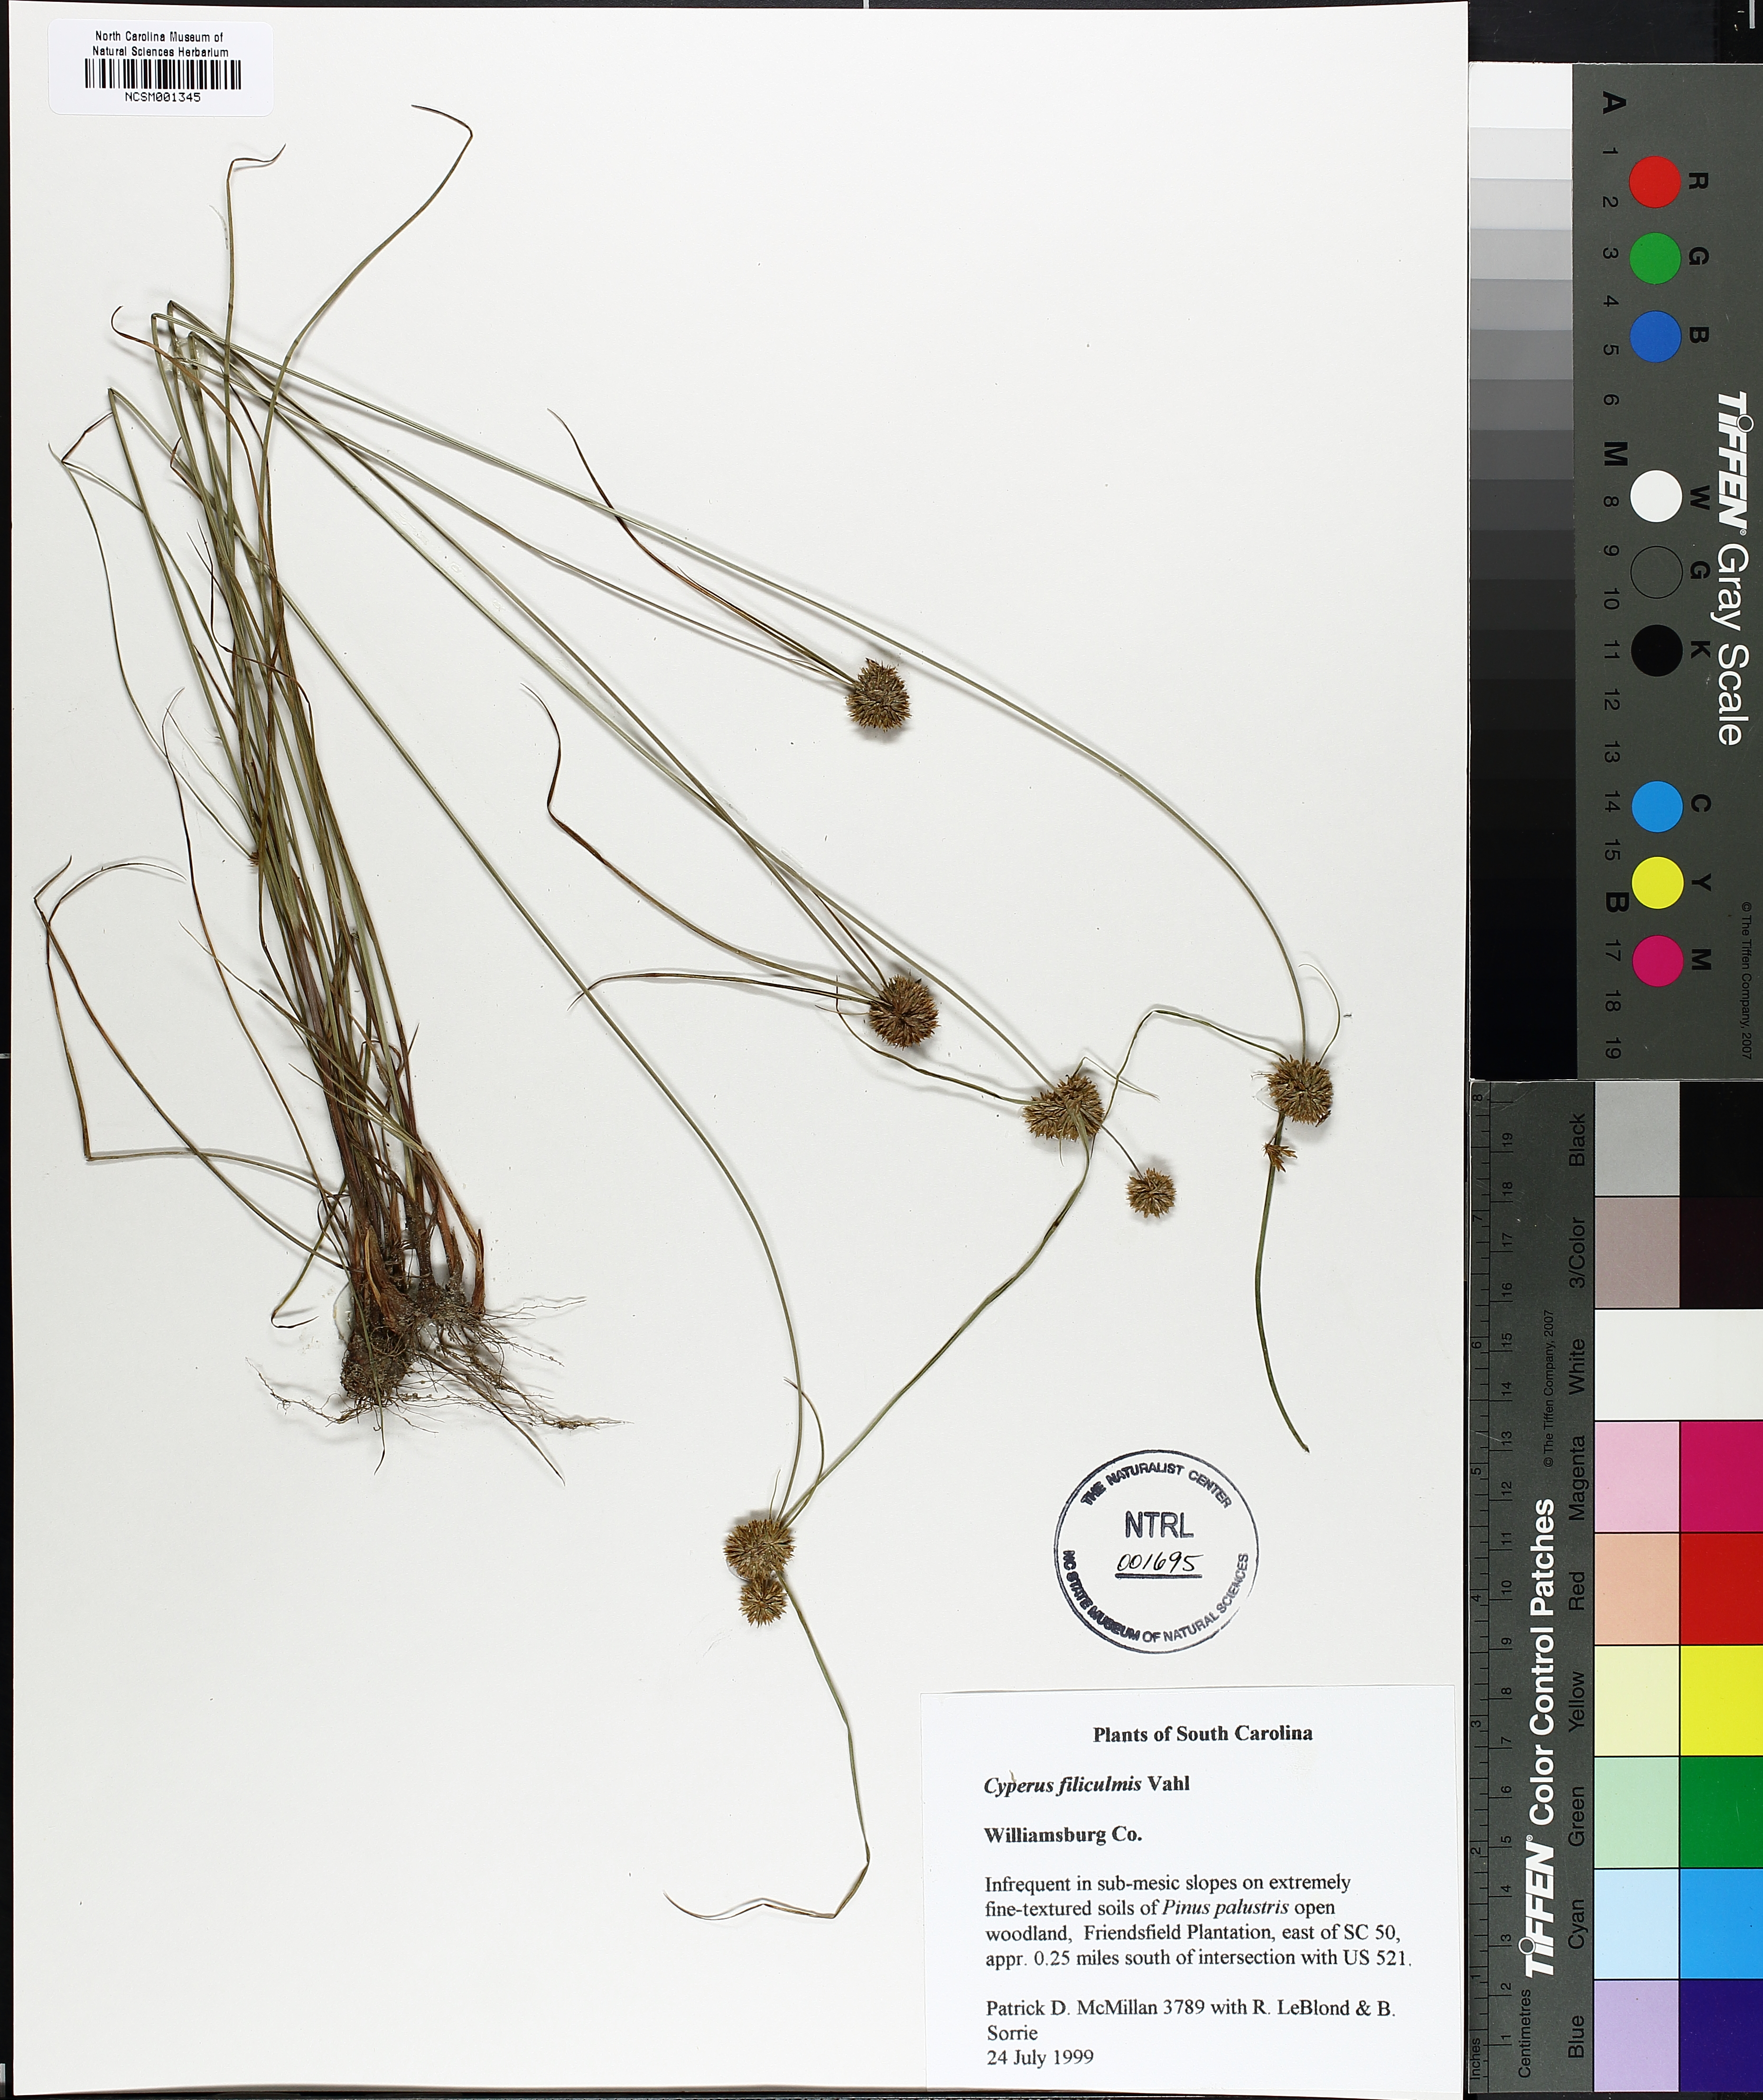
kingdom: Plantae
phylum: Tracheophyta
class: Liliopsida
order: Poales
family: Cyperaceae
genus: Cyperus
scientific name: Cyperus lupulinus
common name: Great plains flatsedge
